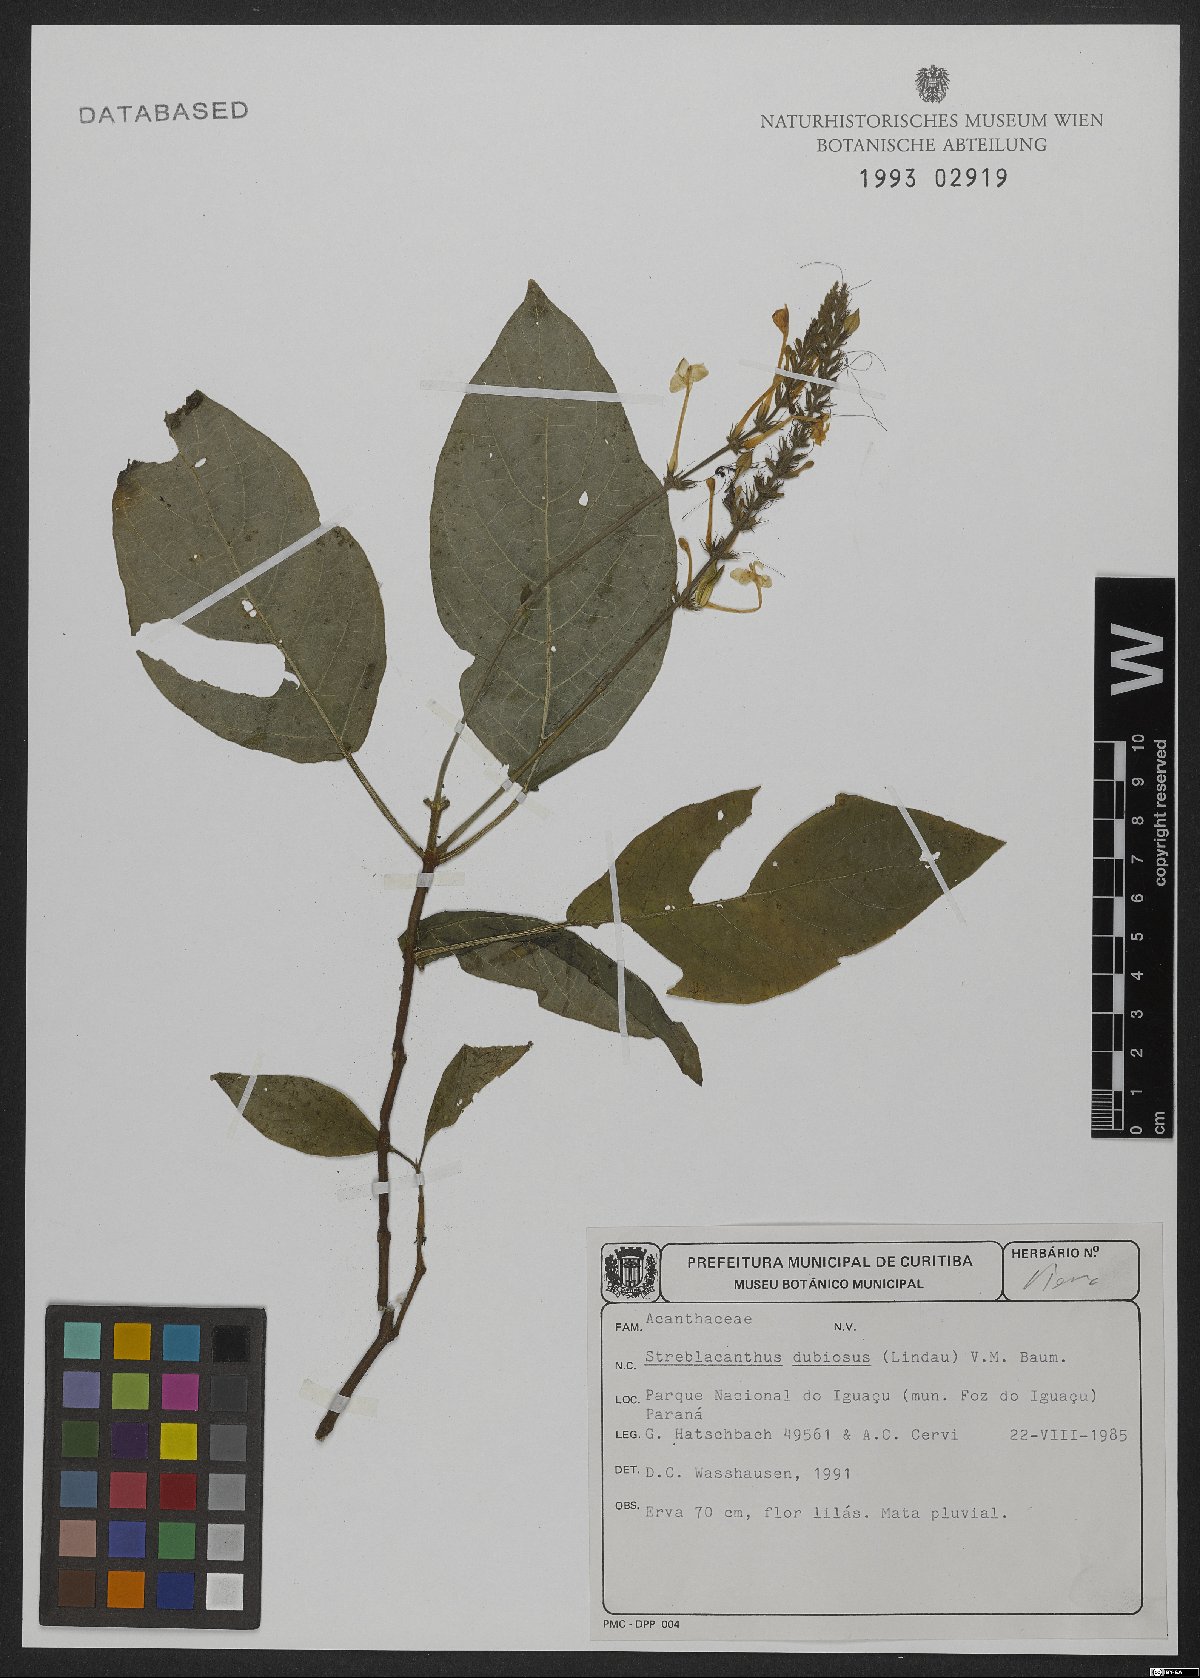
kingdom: Plantae
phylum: Tracheophyta
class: Magnoliopsida
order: Lamiales
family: Acanthaceae
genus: Pachystachys
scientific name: Pachystachys dubiosa
